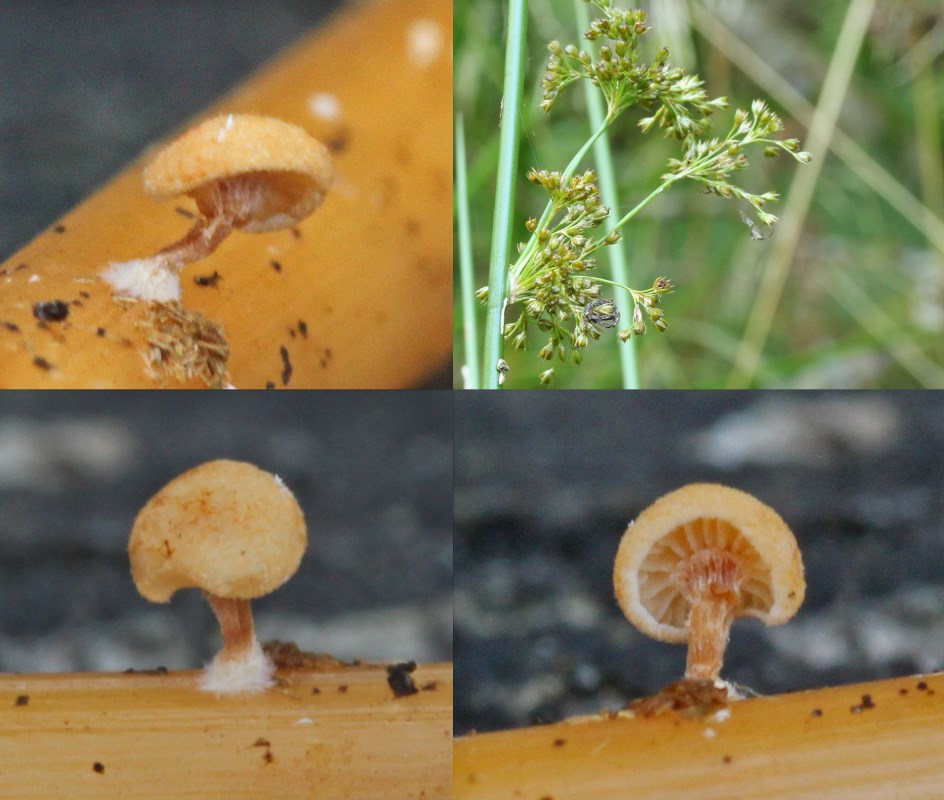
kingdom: Fungi
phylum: Basidiomycota
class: Agaricomycetes
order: Agaricales
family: Strophariaceae
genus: Deconica
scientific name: Deconica phillipsii
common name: almindelig stråhat
